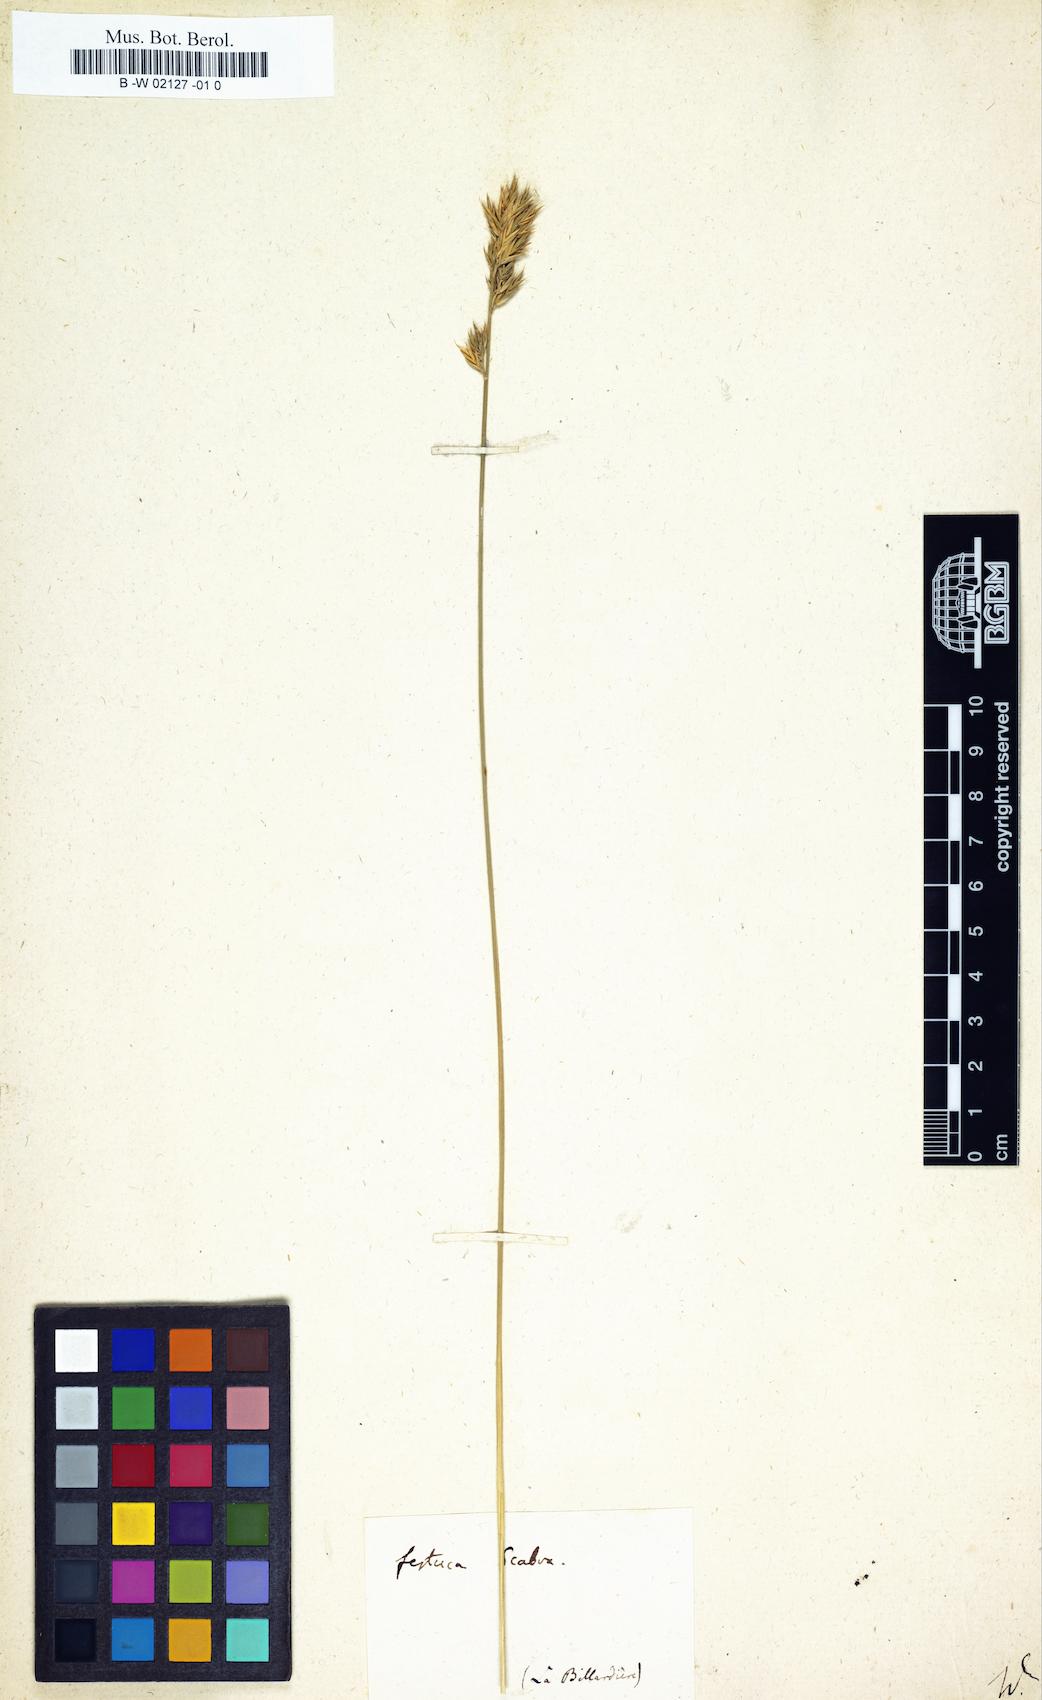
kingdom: Plantae
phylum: Tracheophyta
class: Liliopsida
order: Poales
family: Poaceae
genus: Festuca
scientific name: Festuca scabra
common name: Munnik fescue
